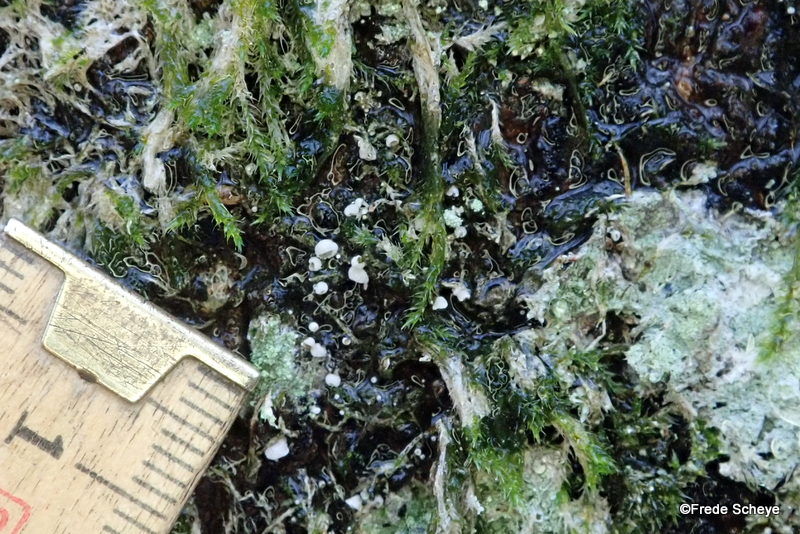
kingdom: Fungi
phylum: Basidiomycota
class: Agaricomycetes
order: Agaricales
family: Chromocyphellaceae
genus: Chromocyphella
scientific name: Chromocyphella muscicola
